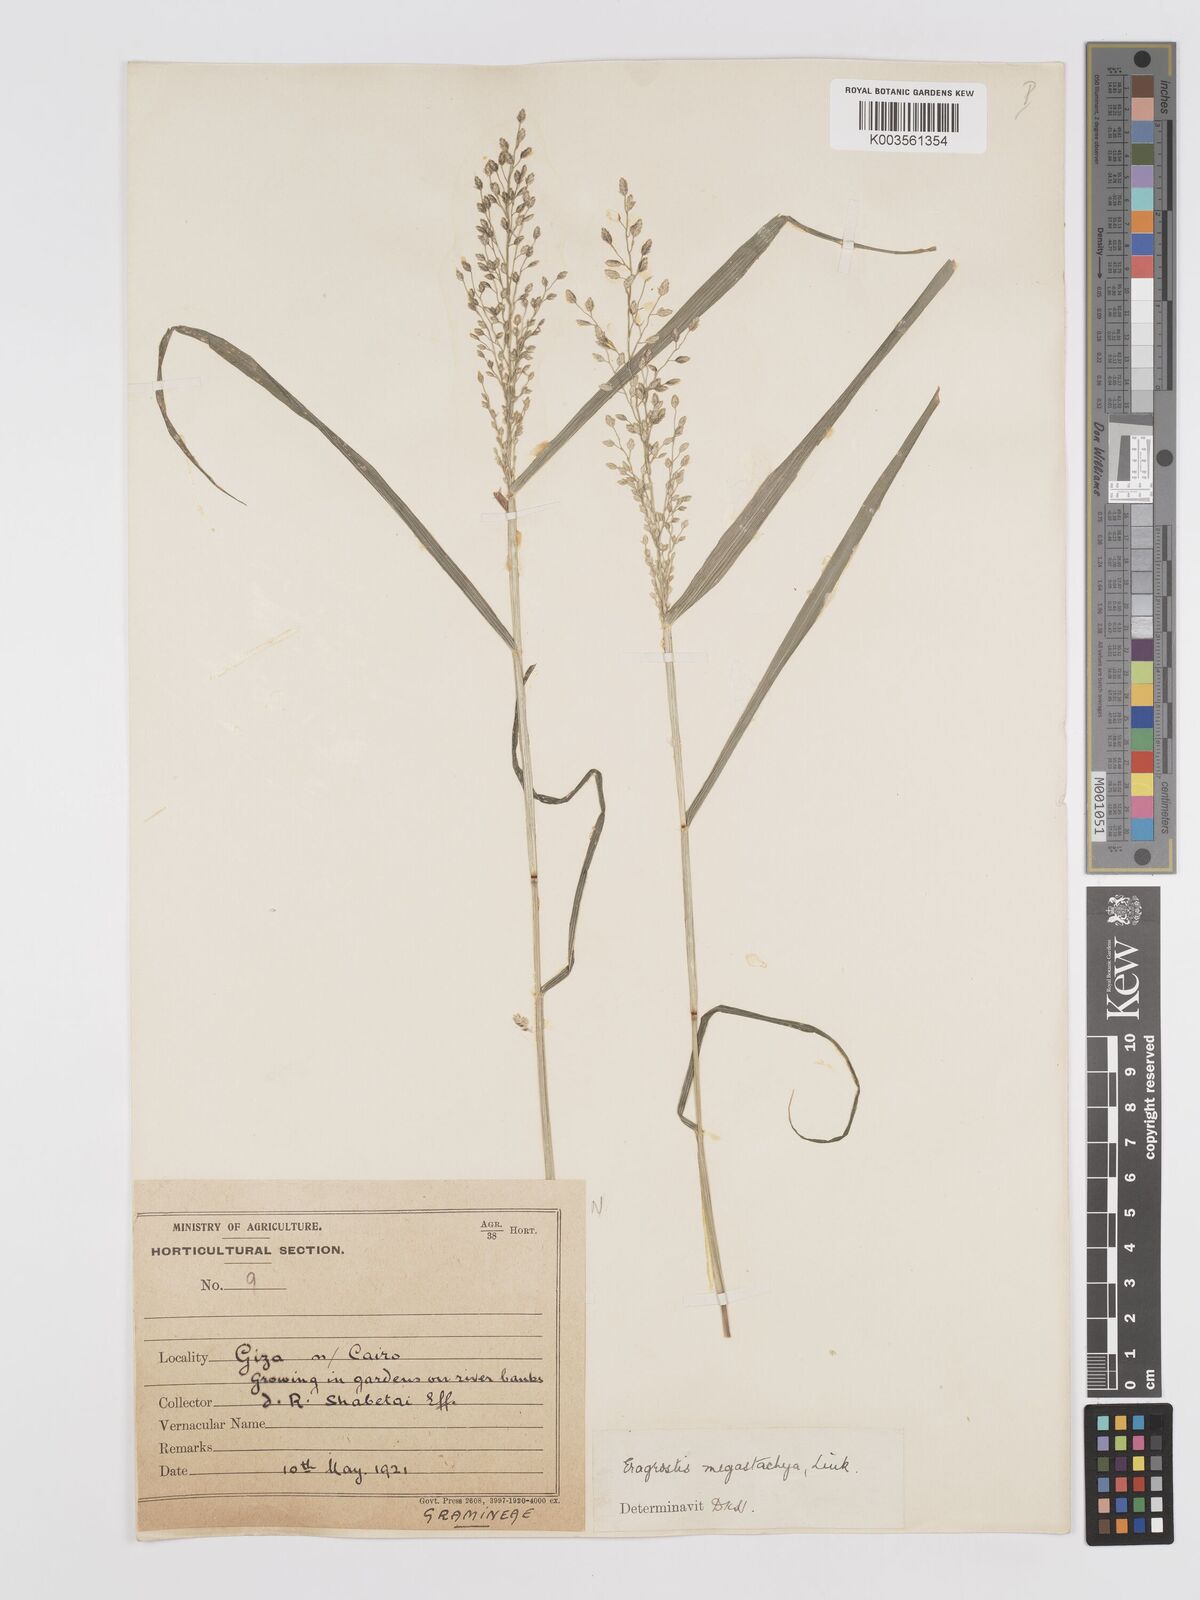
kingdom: Plantae
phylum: Tracheophyta
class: Liliopsida
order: Poales
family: Poaceae
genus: Eragrostis
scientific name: Eragrostis cilianensis
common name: Stinkgrass
